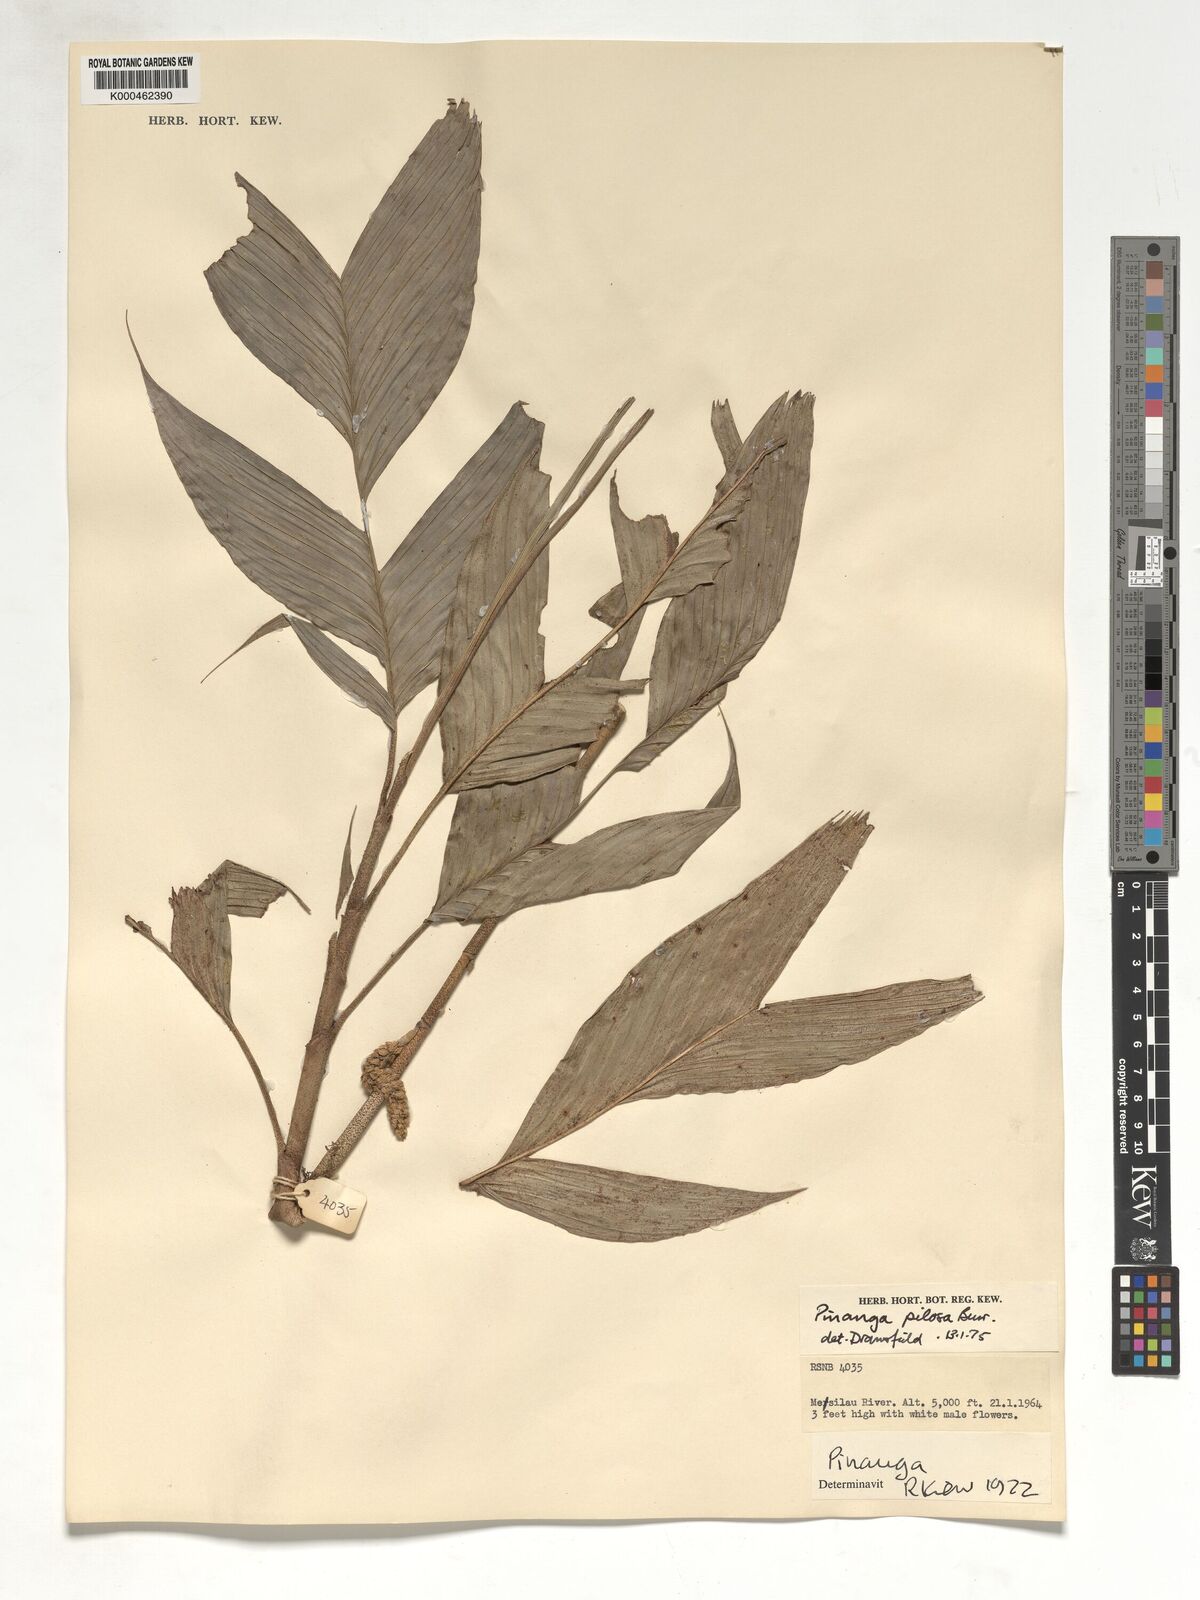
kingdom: Plantae
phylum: Tracheophyta
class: Liliopsida
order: Arecales
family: Arecaceae
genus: Pinanga
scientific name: Pinanga pilosa
